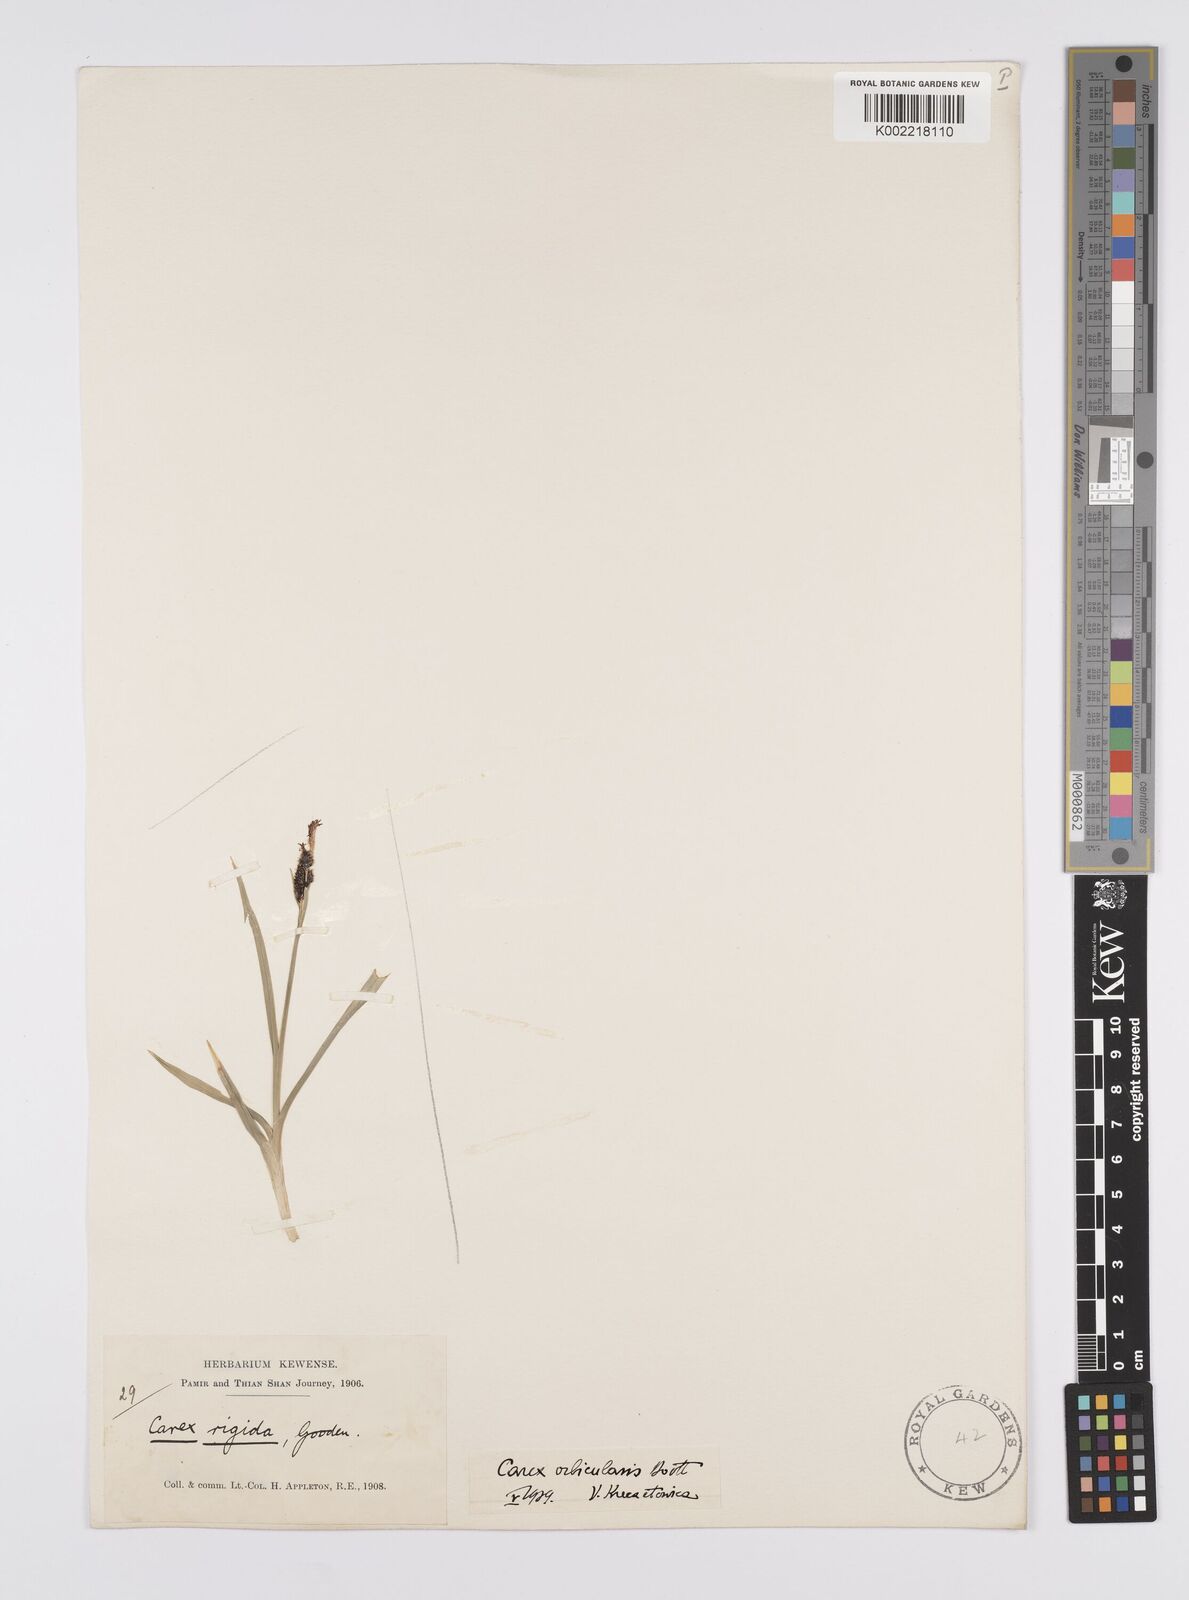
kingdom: Plantae
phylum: Tracheophyta
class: Liliopsida
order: Poales
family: Cyperaceae
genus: Carex
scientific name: Carex orbicularis
